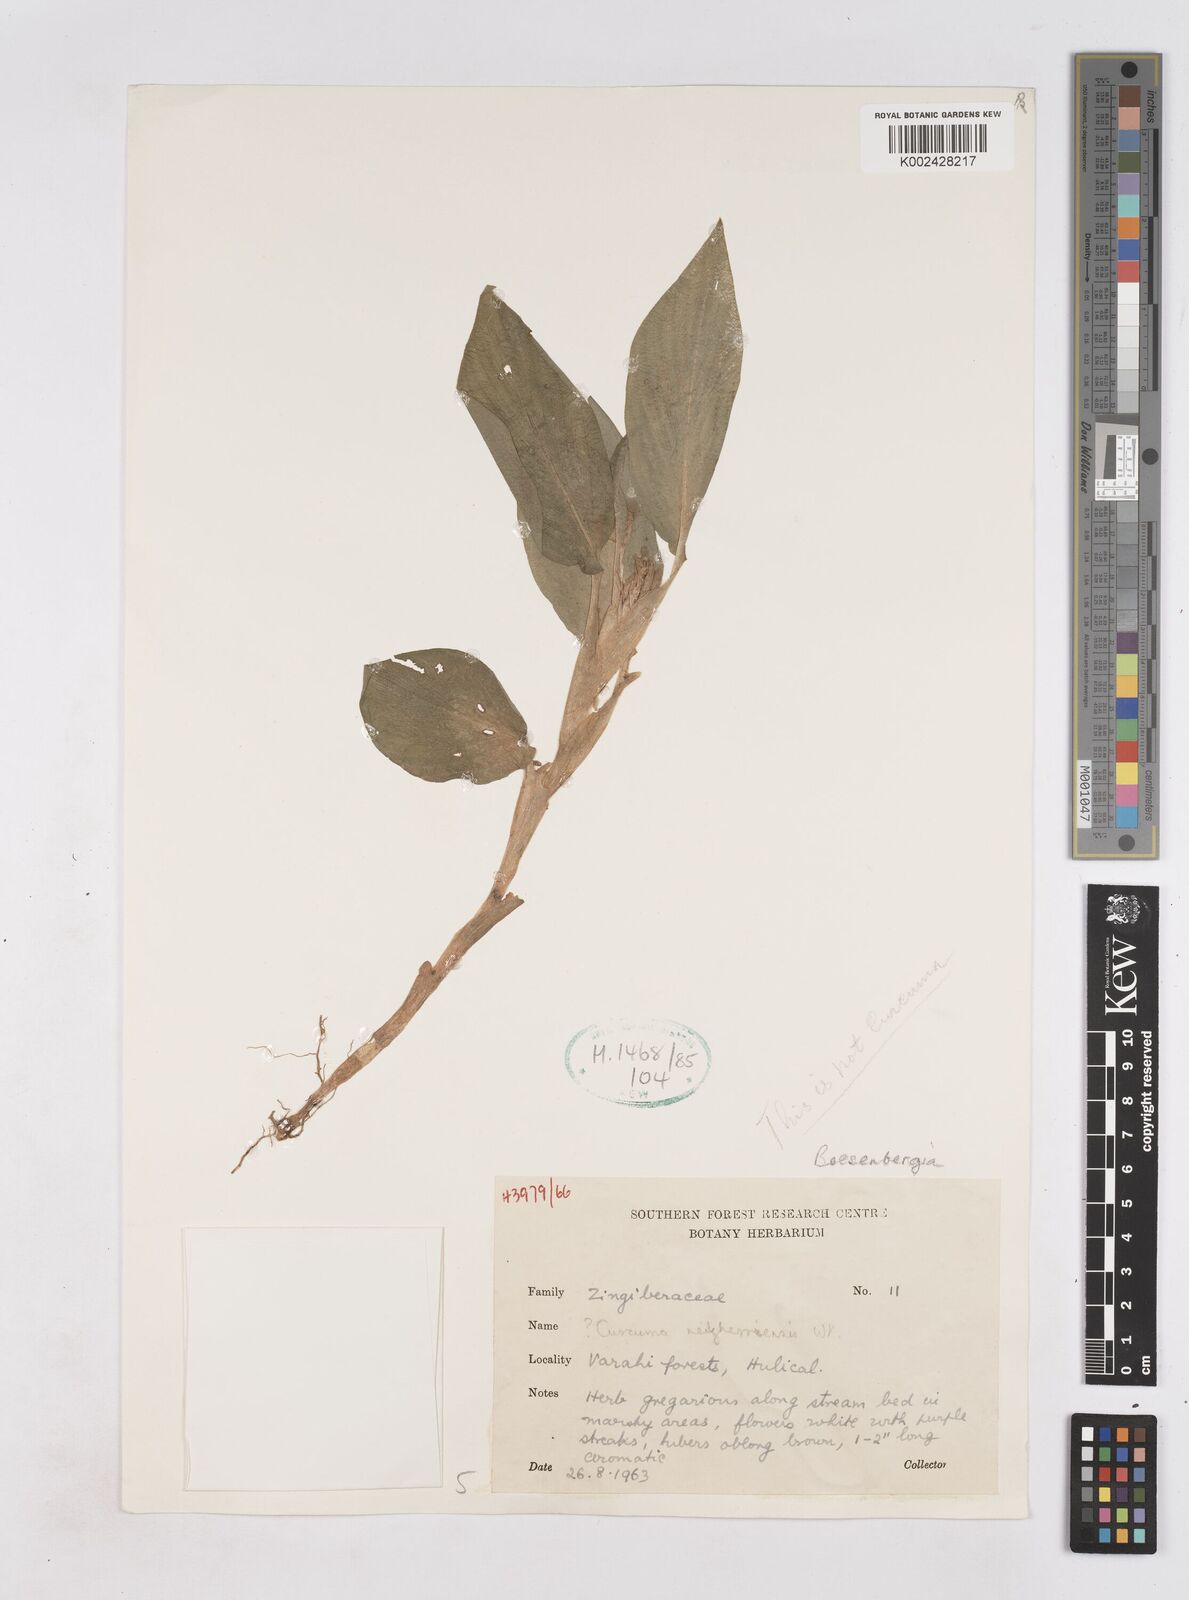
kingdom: Plantae
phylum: Tracheophyta
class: Liliopsida
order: Zingiberales
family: Zingiberaceae
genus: Boesenbergia
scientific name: Boesenbergia
